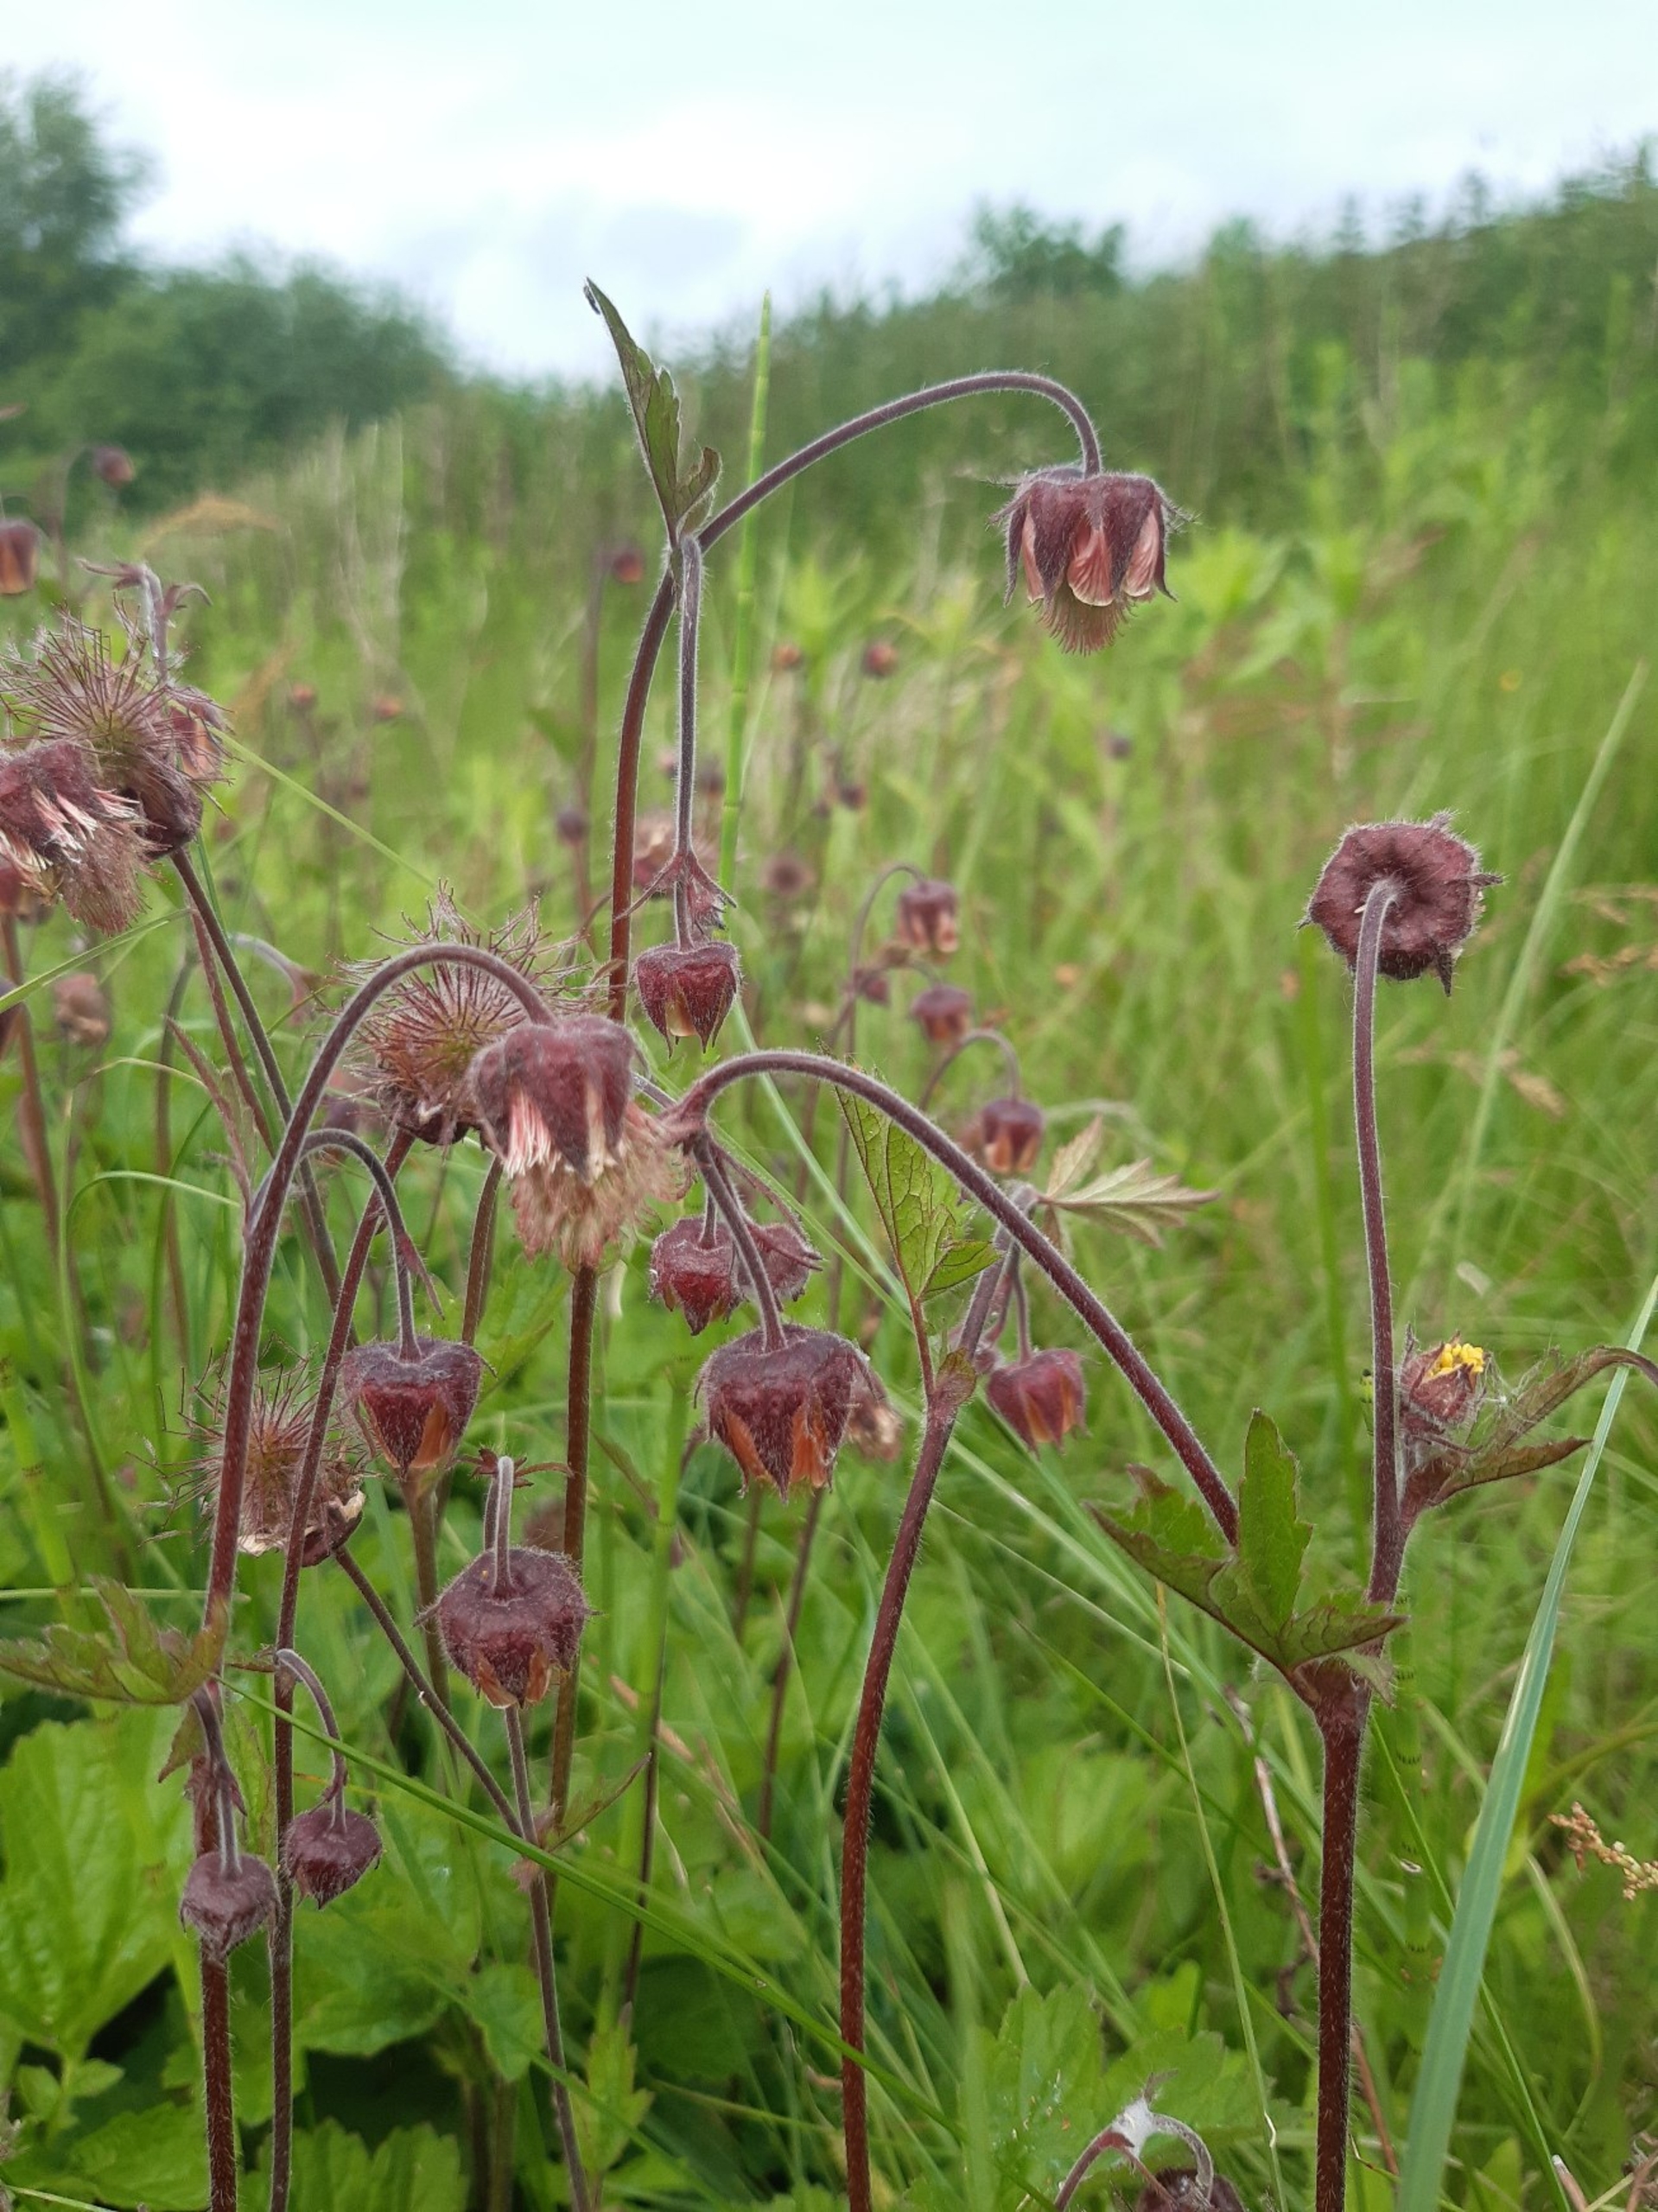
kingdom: Plantae
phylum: Tracheophyta
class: Magnoliopsida
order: Rosales
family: Rosaceae
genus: Geum
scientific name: Geum rivale
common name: Eng-nellikerod
